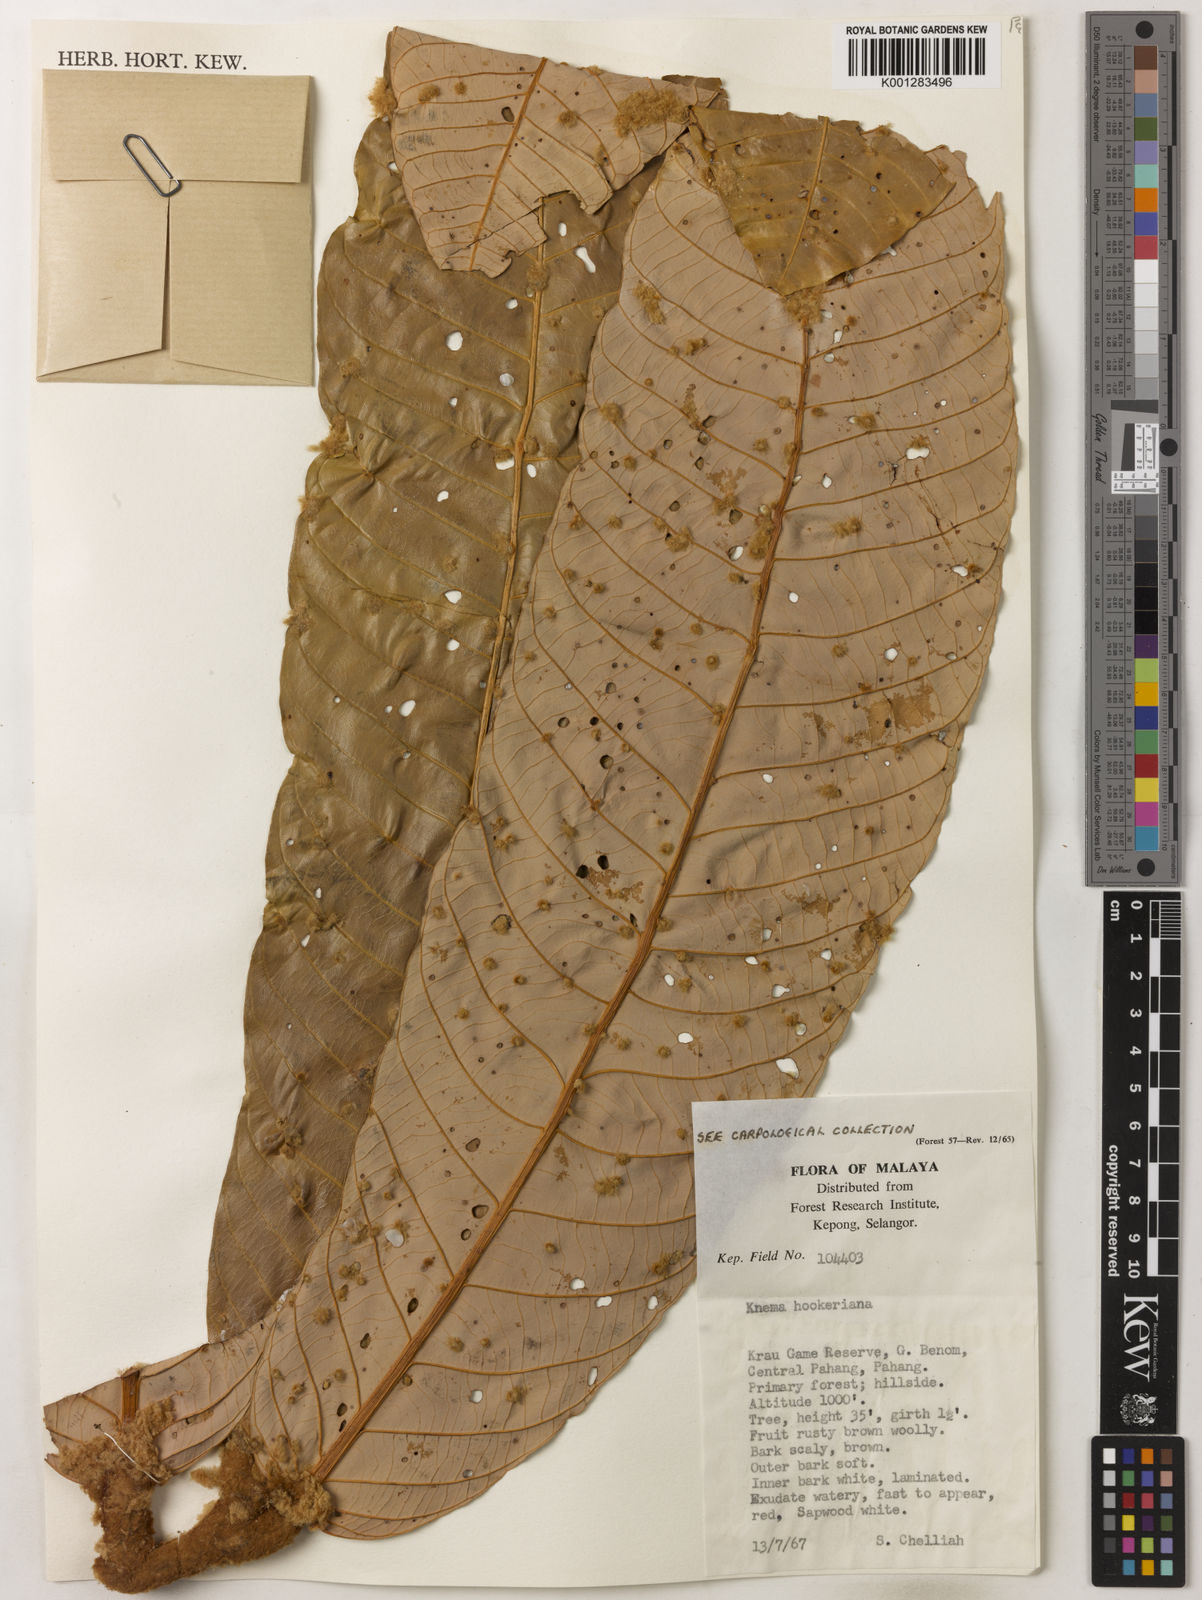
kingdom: Plantae
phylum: Tracheophyta
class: Magnoliopsida
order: Magnoliales
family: Myristicaceae
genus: Knema
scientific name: Knema hookeriana
